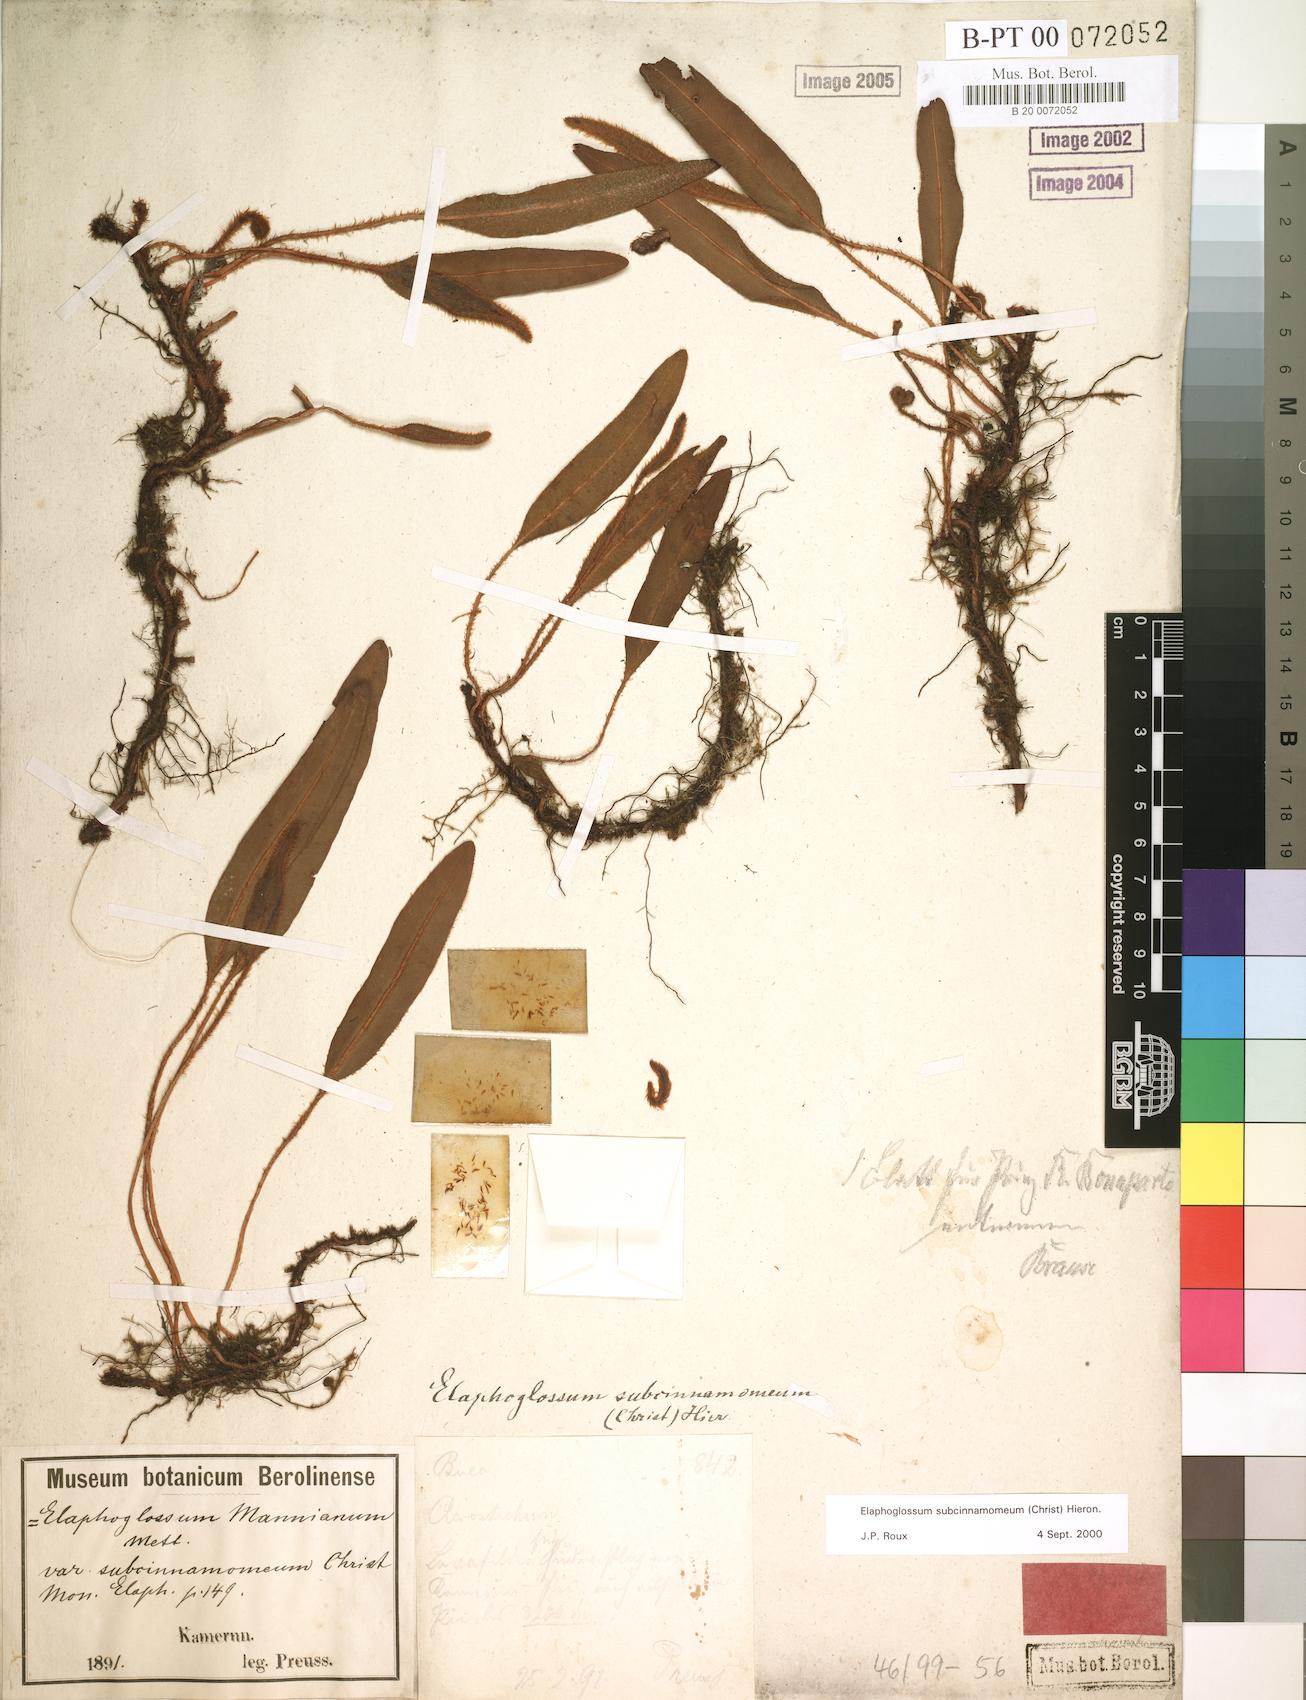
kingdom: Plantae
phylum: Tracheophyta
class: Polypodiopsida
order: Polypodiales
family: Dryopteridaceae
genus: Elaphoglossum
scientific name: Elaphoglossum subcinnamomeum
